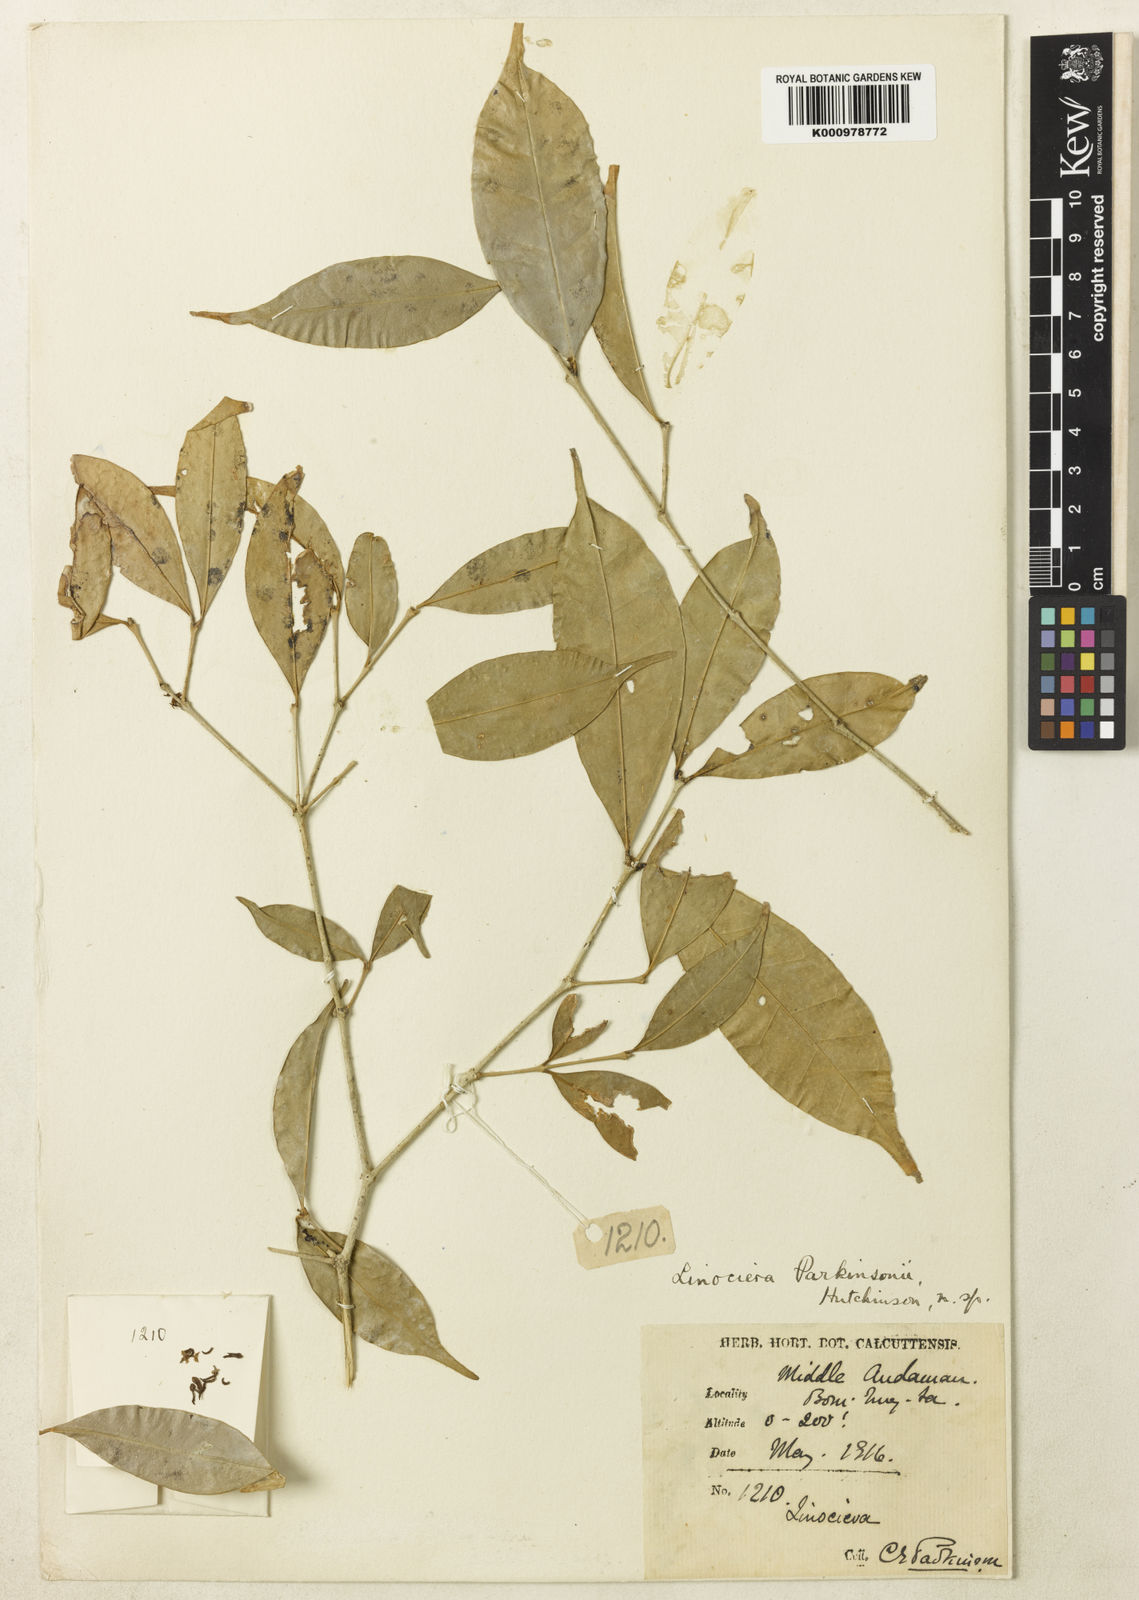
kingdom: Plantae
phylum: Tracheophyta
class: Magnoliopsida
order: Lamiales
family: Oleaceae
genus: Chionanthus
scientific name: Chionanthus parkinsonii
